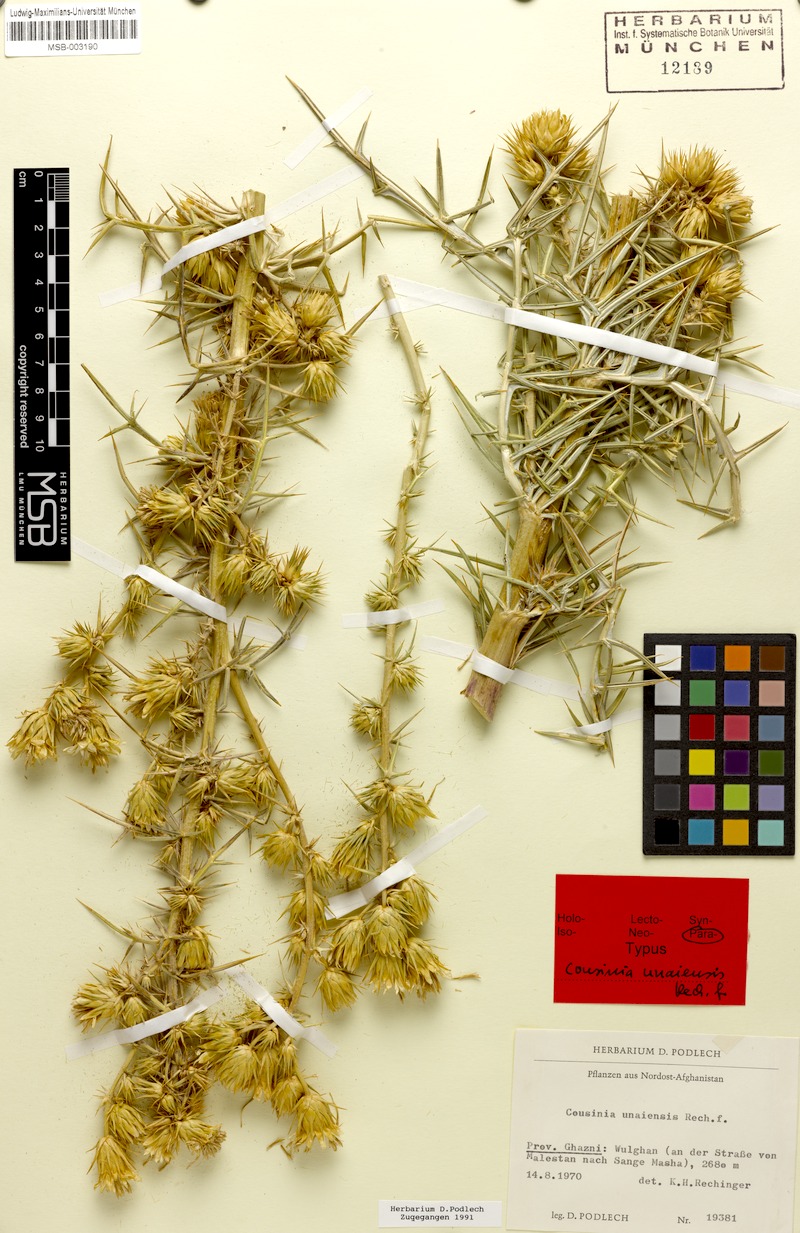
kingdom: Plantae
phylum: Tracheophyta
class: Magnoliopsida
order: Asterales
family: Asteraceae
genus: Cousinia
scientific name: Cousinia unaiensis
